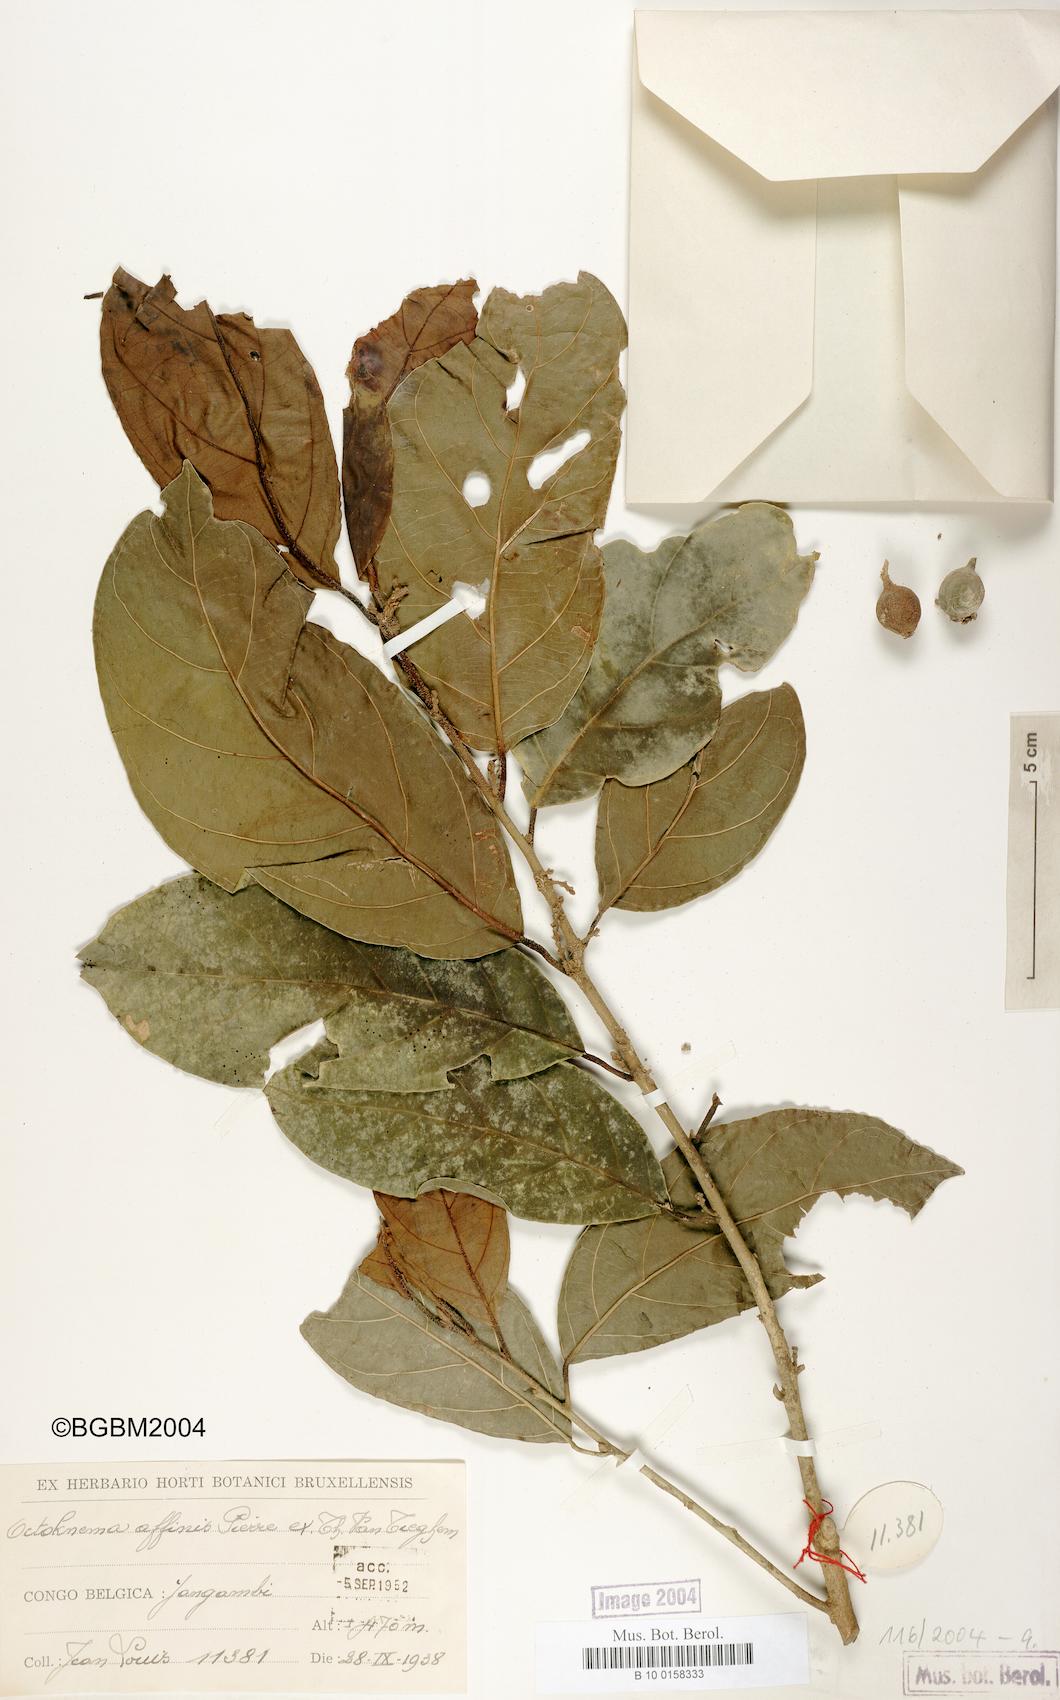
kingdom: Plantae
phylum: Tracheophyta
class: Magnoliopsida
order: Santalales
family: Octoknemaceae
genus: Octoknema
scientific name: Octoknema aruwimiensis
